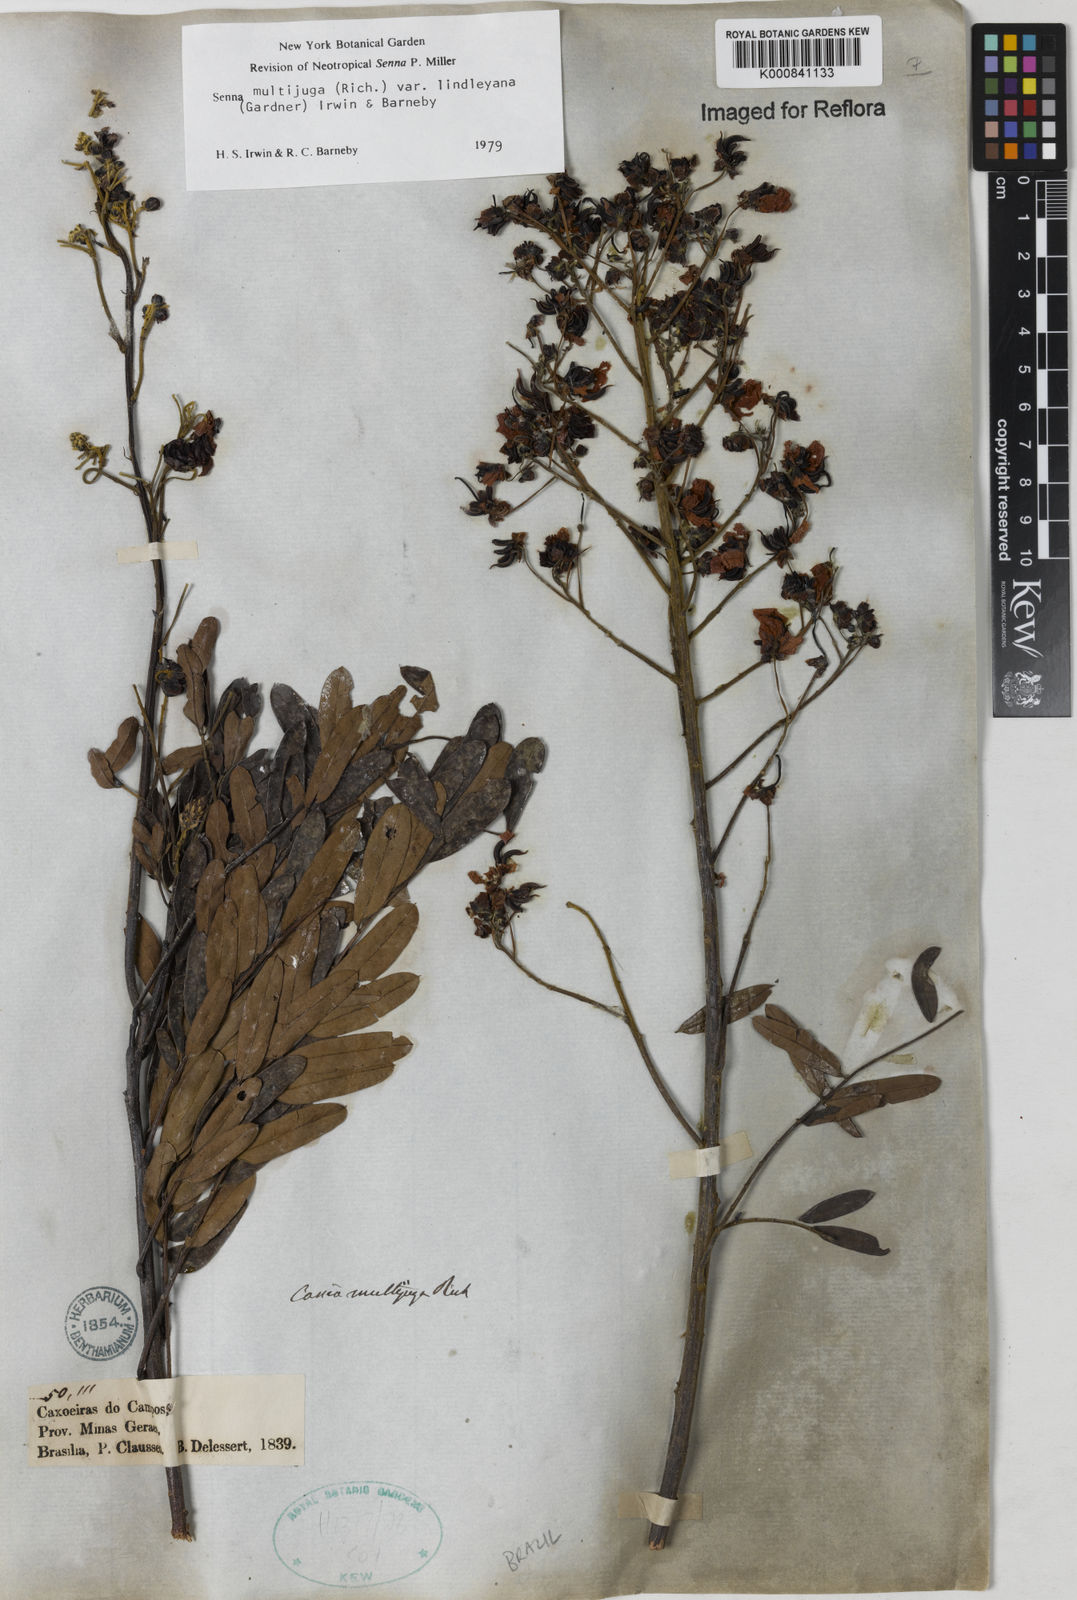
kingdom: Plantae
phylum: Tracheophyta
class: Magnoliopsida
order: Fabales
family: Fabaceae
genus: Senna
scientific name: Senna multijuga
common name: False sicklepod
